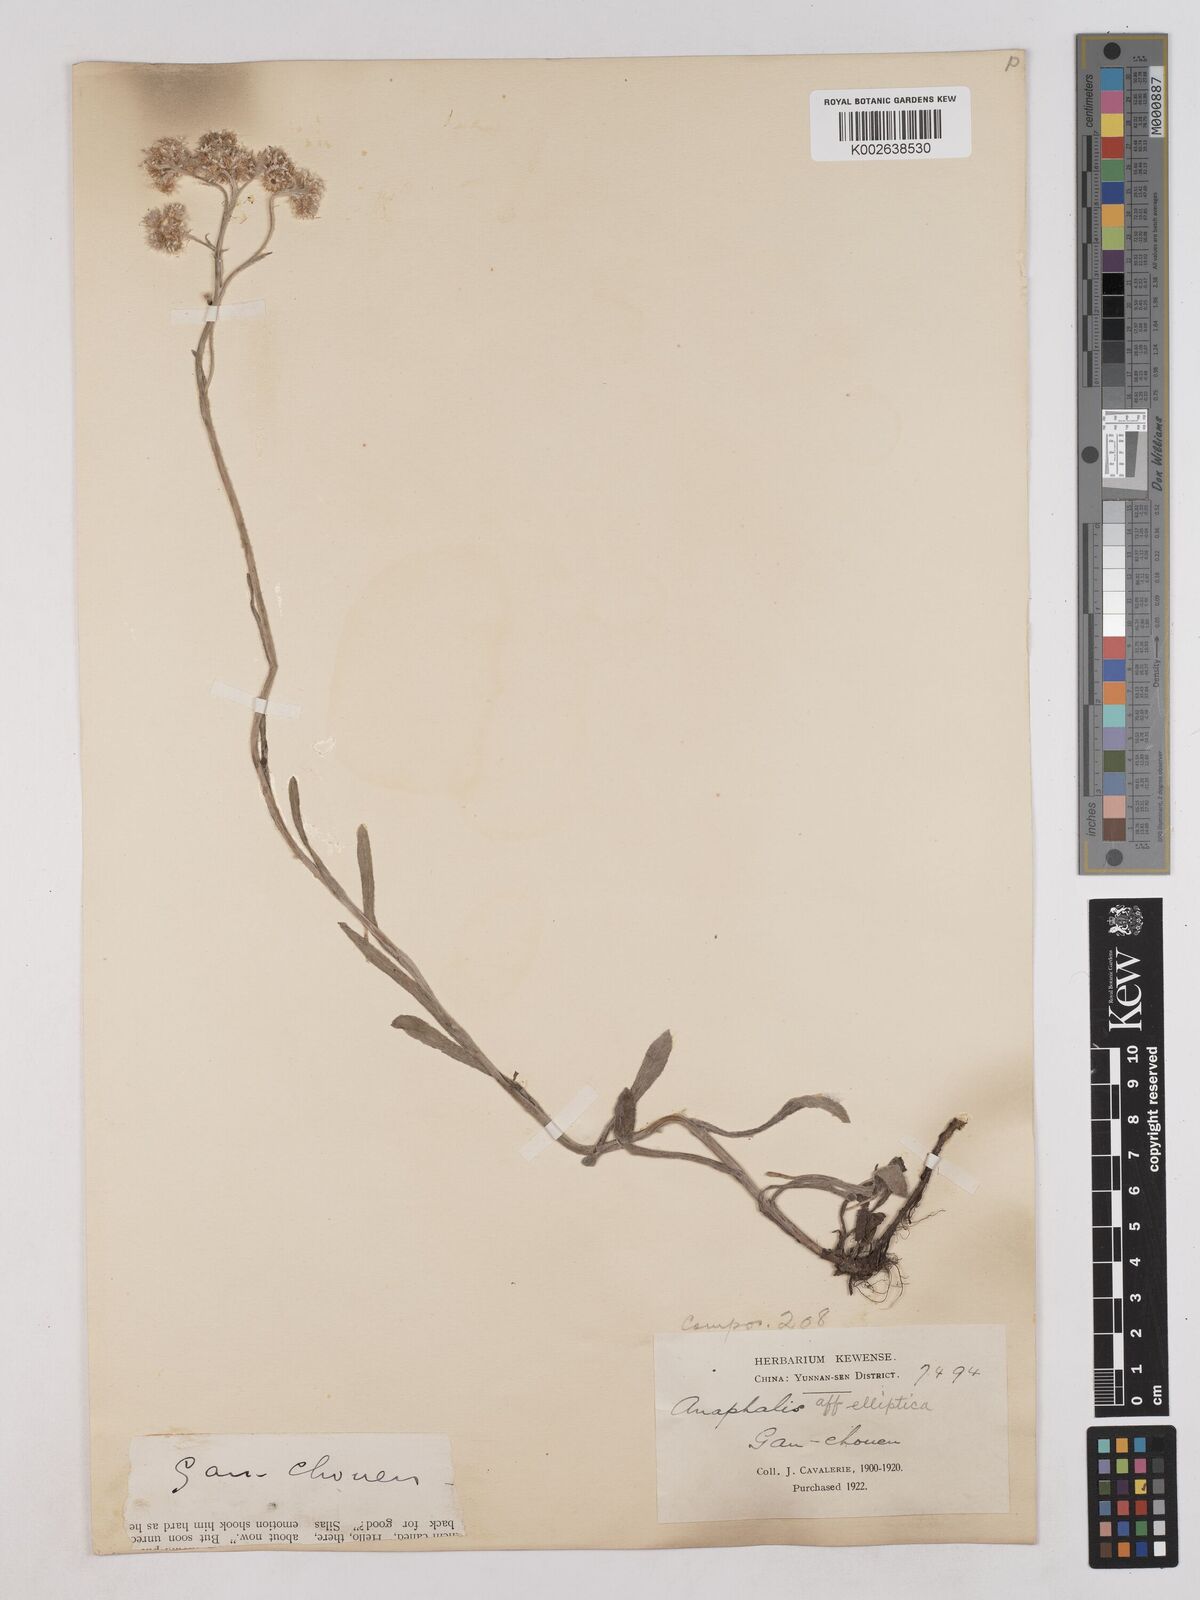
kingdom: Plantae
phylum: Tracheophyta
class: Magnoliopsida
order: Asterales
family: Asteraceae
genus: Anaphalis
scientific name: Anaphalis
